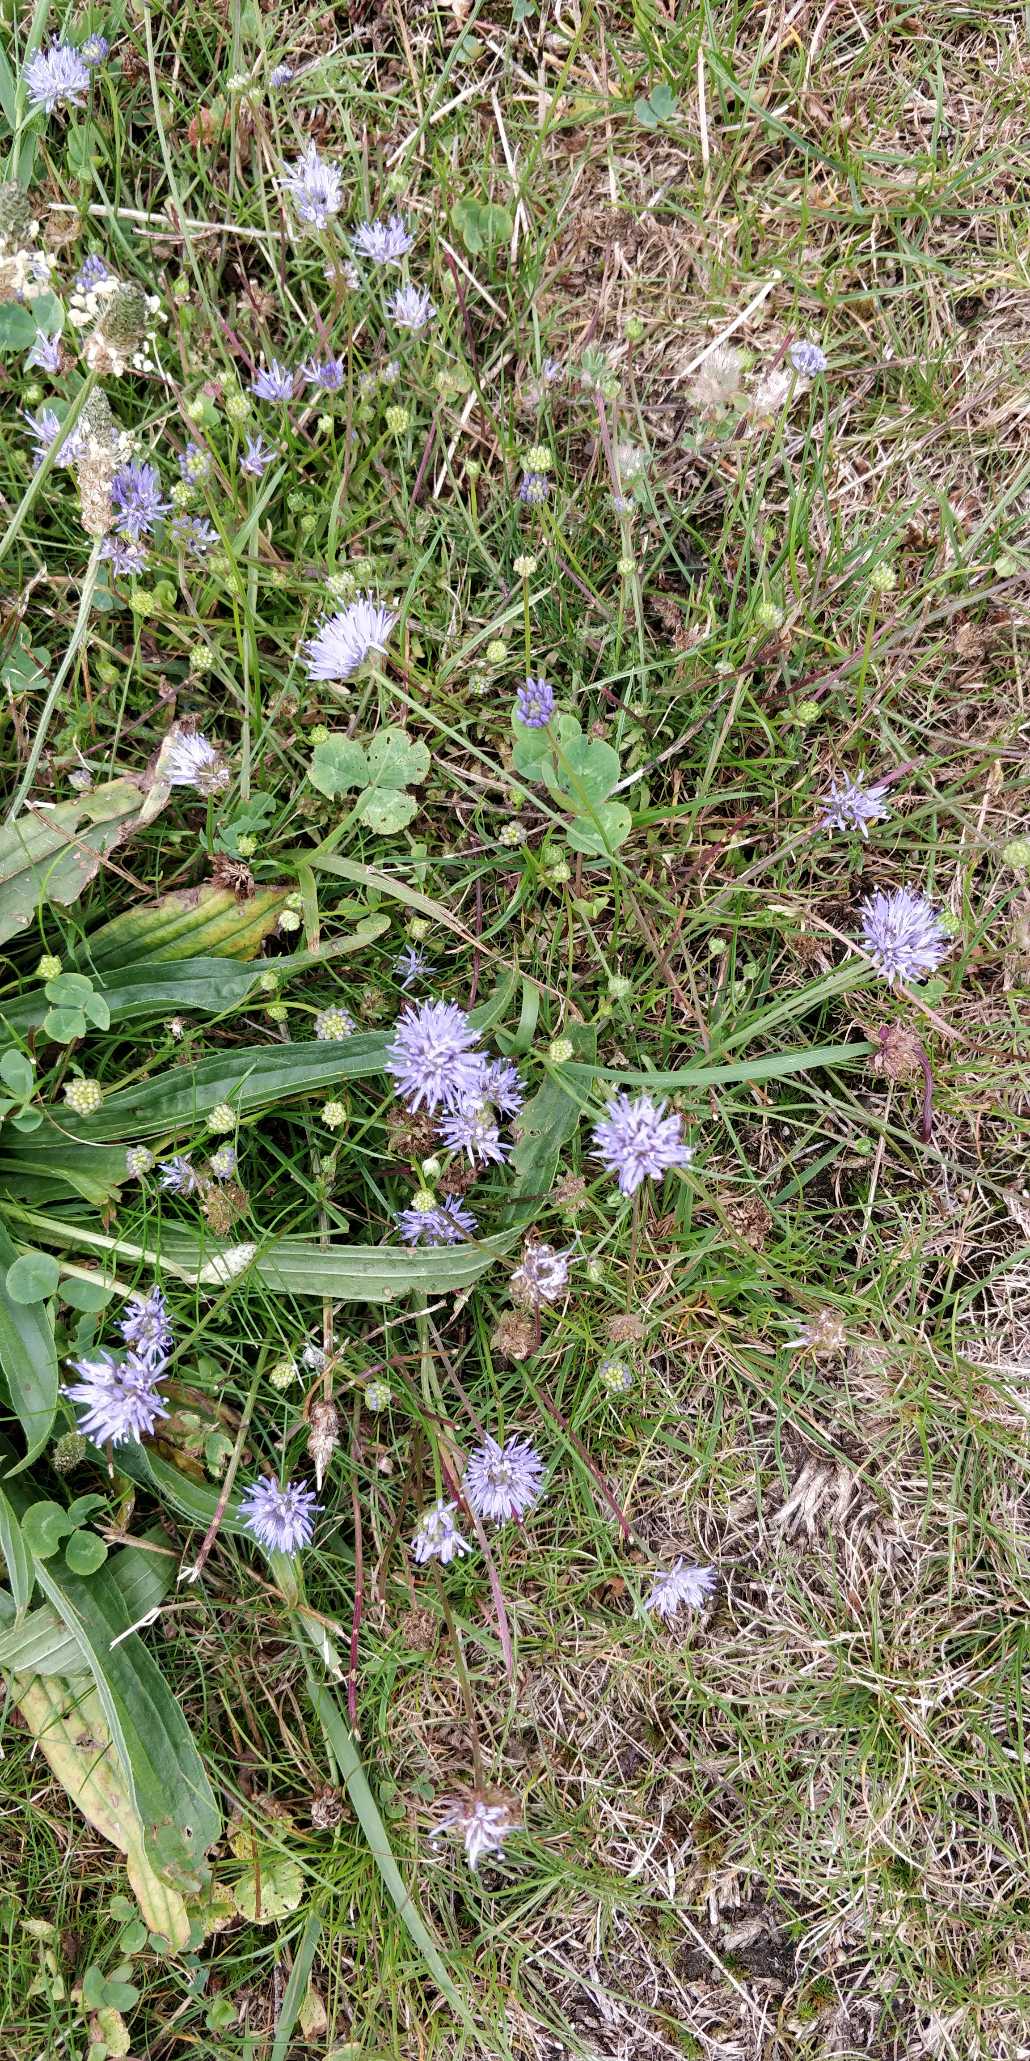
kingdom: Plantae
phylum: Tracheophyta
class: Magnoliopsida
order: Asterales
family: Campanulaceae
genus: Jasione
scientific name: Jasione montana
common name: Blåmunke
